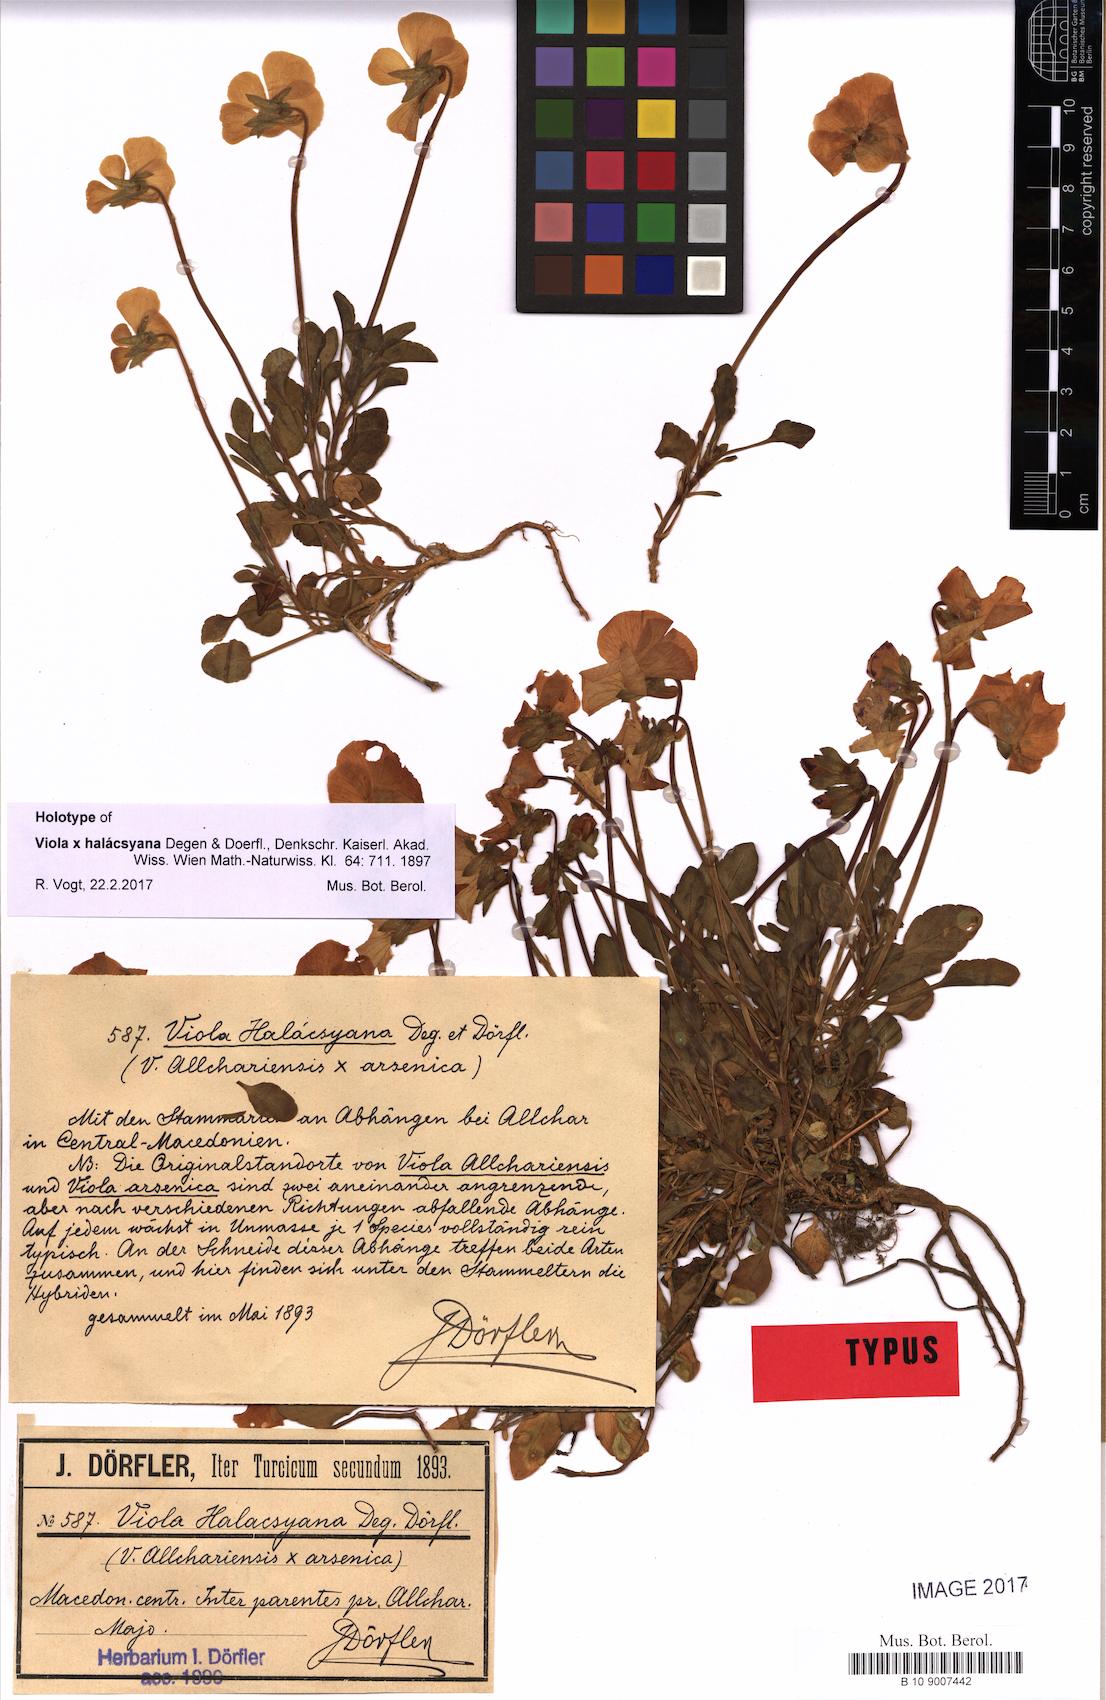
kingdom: Plantae
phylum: Tracheophyta
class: Magnoliopsida
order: Malpighiales
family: Violaceae
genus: Viola
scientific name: Viola halacsyana
